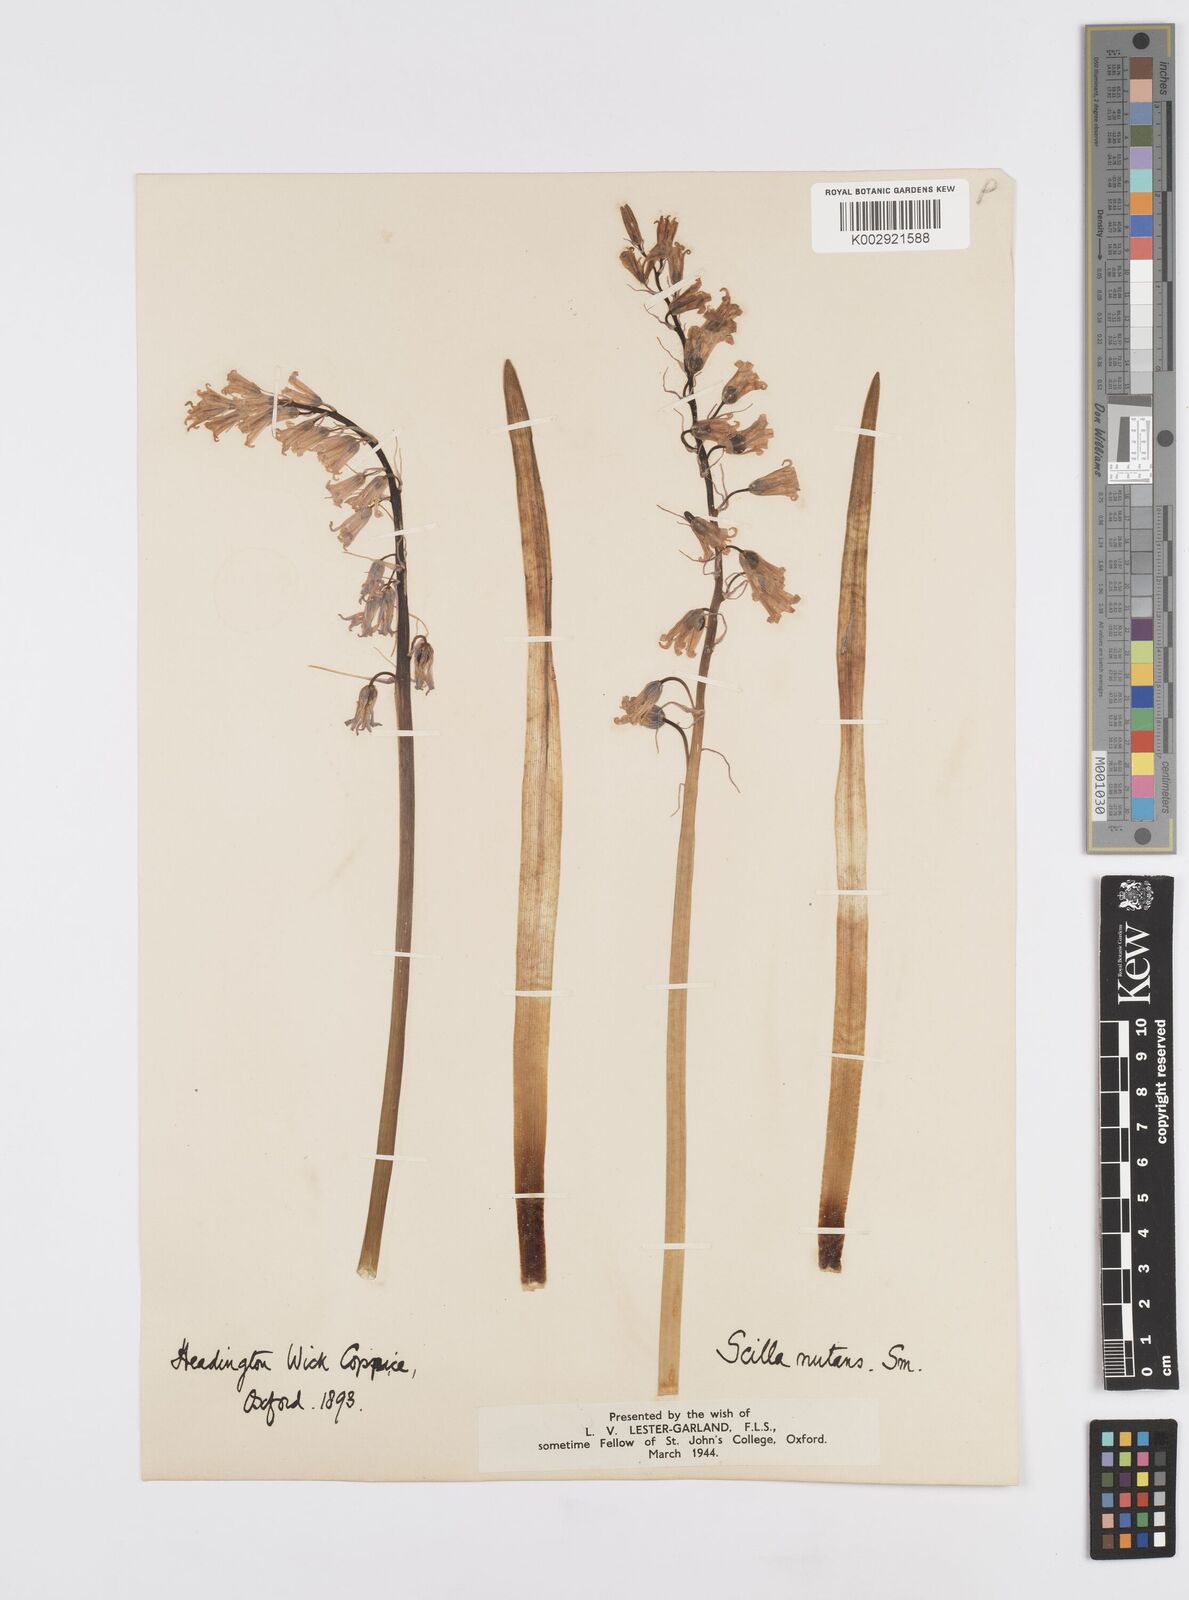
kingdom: Plantae
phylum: Tracheophyta
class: Liliopsida
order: Asparagales
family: Asparagaceae
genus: Hyacinthoides
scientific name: Hyacinthoides non-scripta
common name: Bluebell
